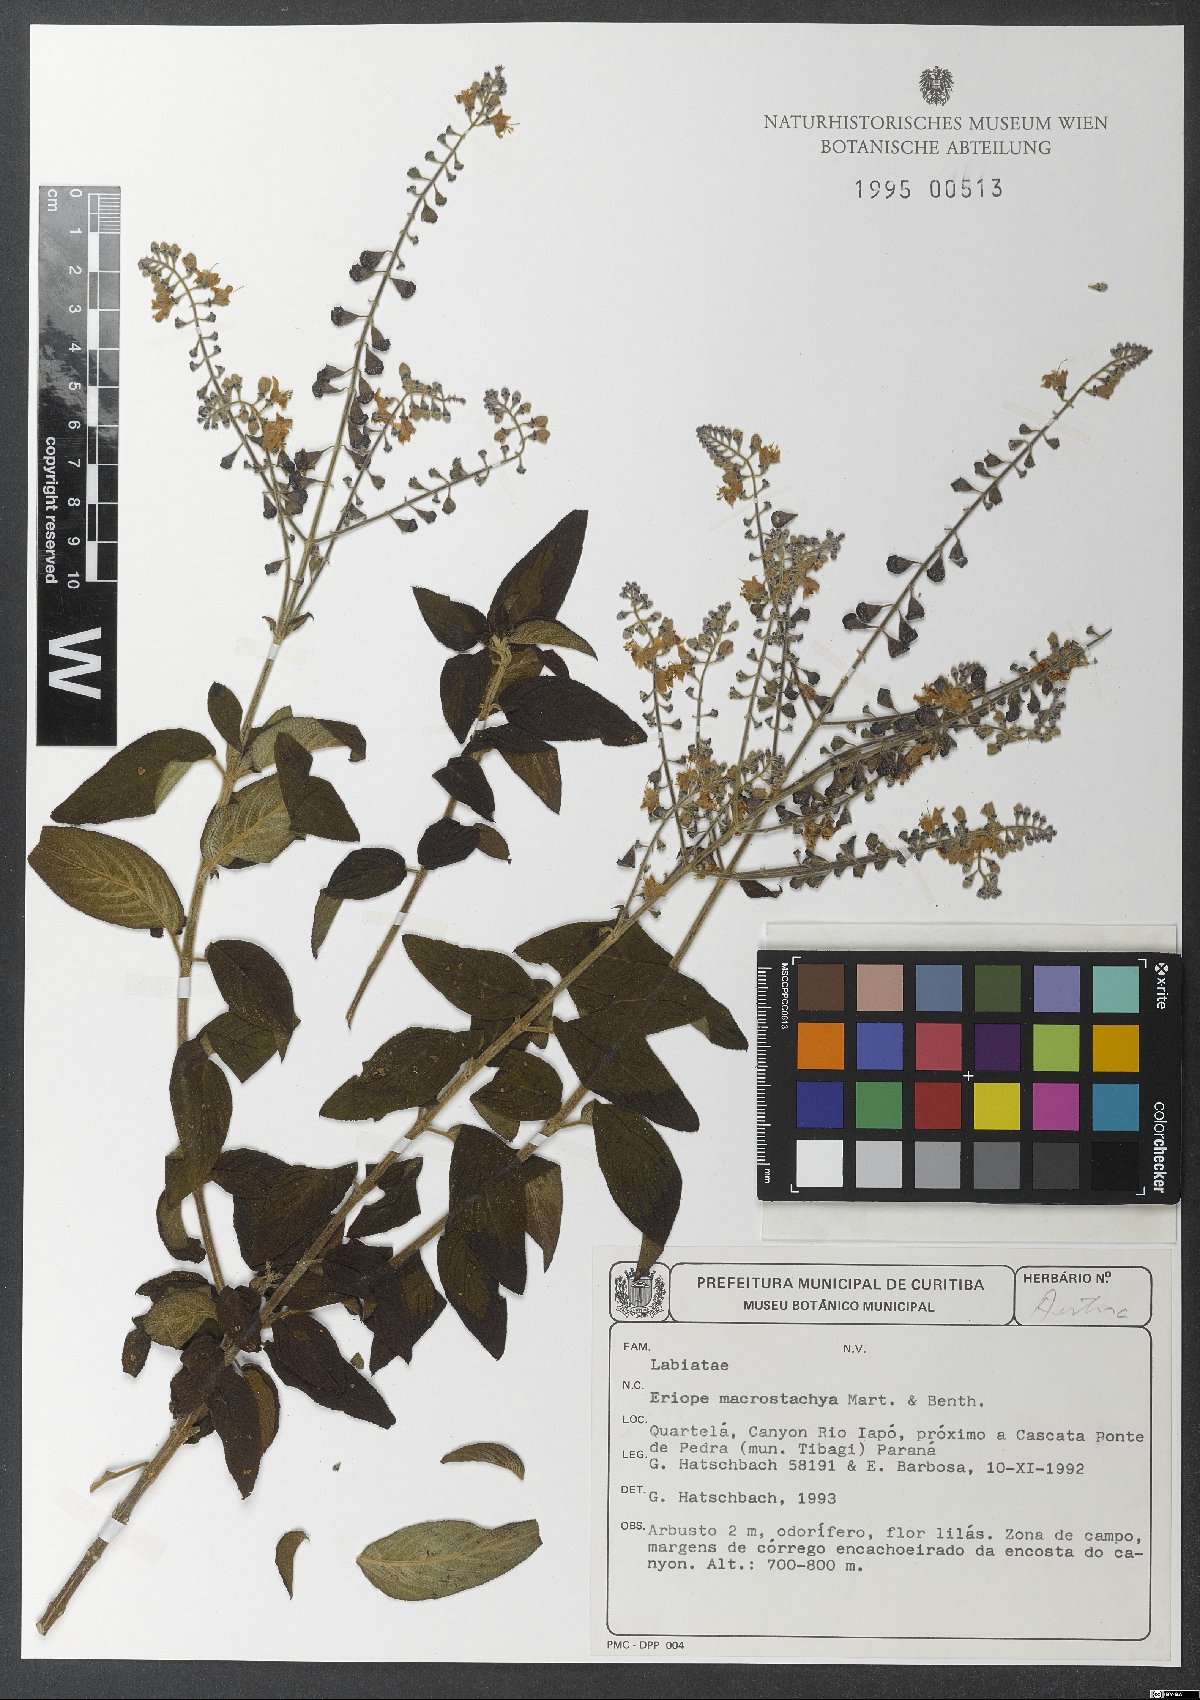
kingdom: Plantae
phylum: Tracheophyta
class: Magnoliopsida
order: Lamiales
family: Lamiaceae
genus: Eriope
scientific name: Eriope macrostachya
